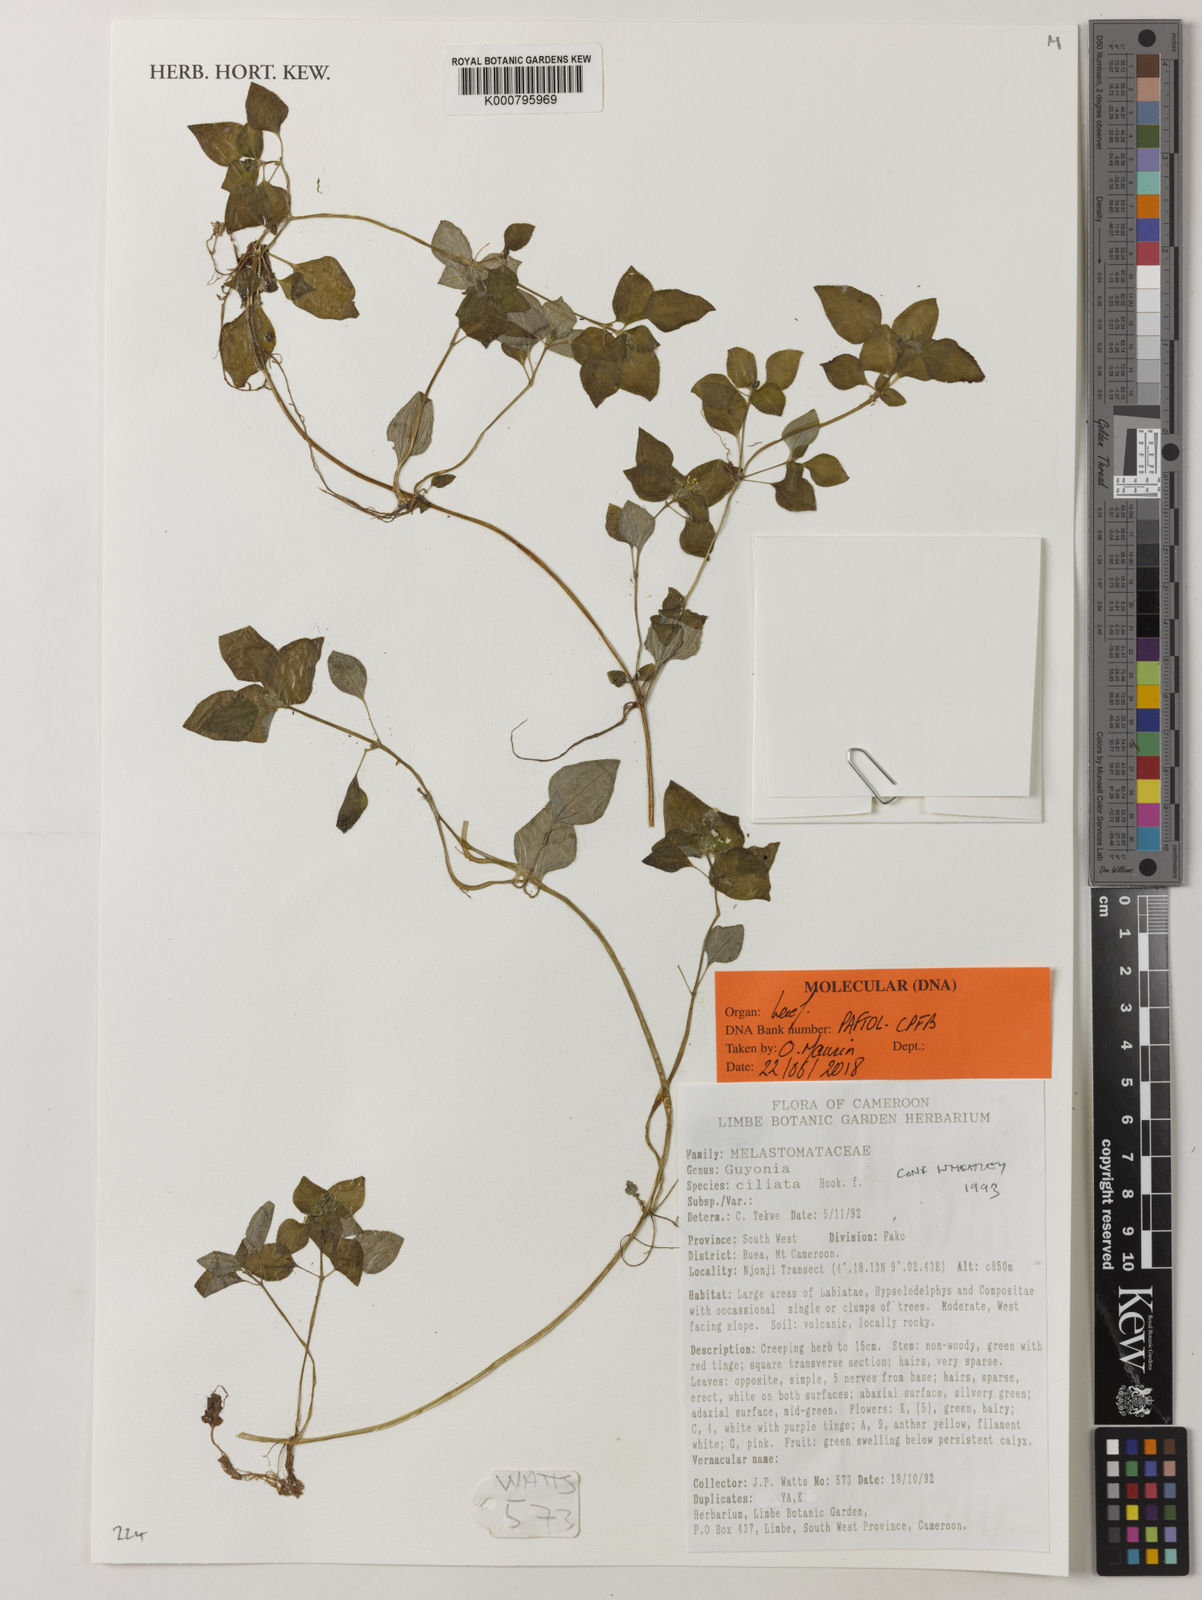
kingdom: Plantae
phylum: Tracheophyta
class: Magnoliopsida
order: Myrtales
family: Melastomataceae
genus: Guyonia
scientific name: Guyonia ciliata
